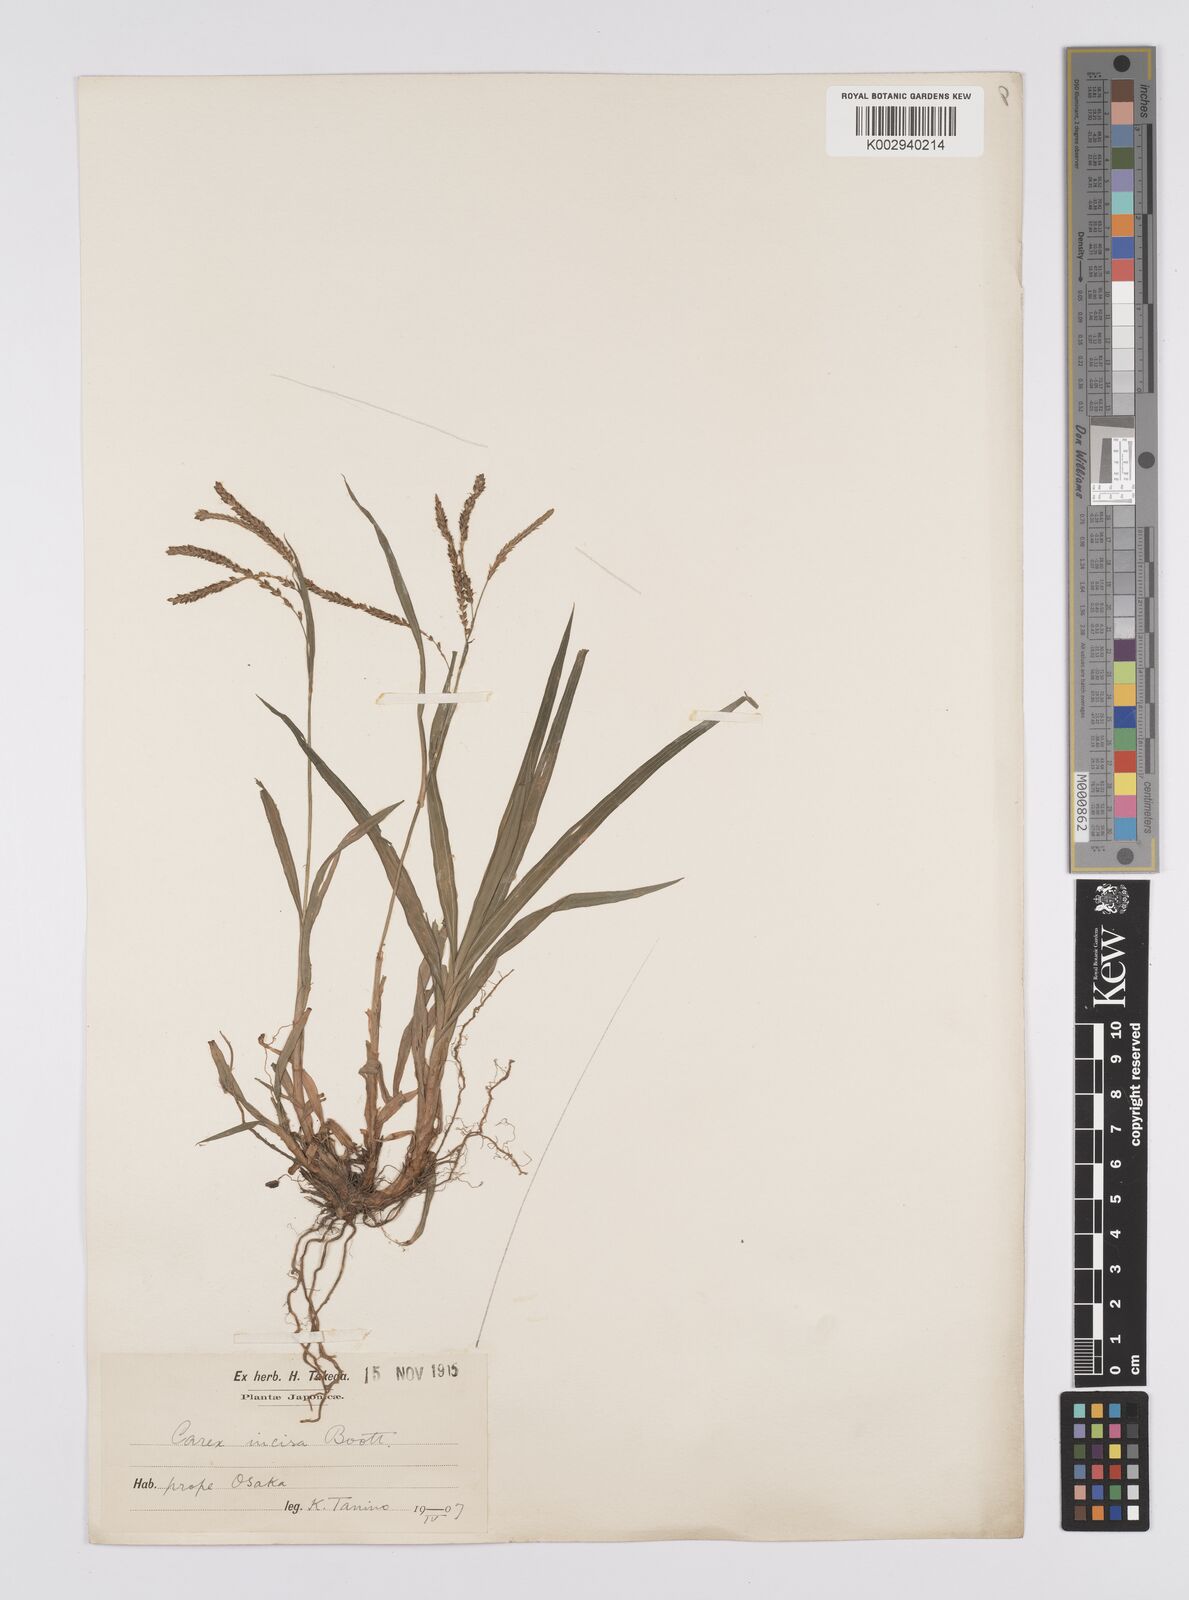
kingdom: Plantae
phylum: Tracheophyta
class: Liliopsida
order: Poales
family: Cyperaceae
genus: Carex
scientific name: Carex incisa
